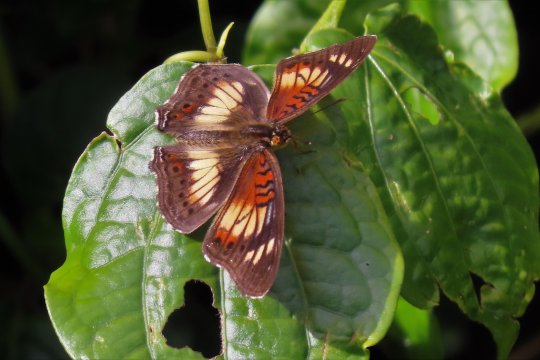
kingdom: Animalia
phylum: Arthropoda
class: Insecta
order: Lepidoptera
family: Nymphalidae
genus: Junonia
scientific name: Junonia sophia
